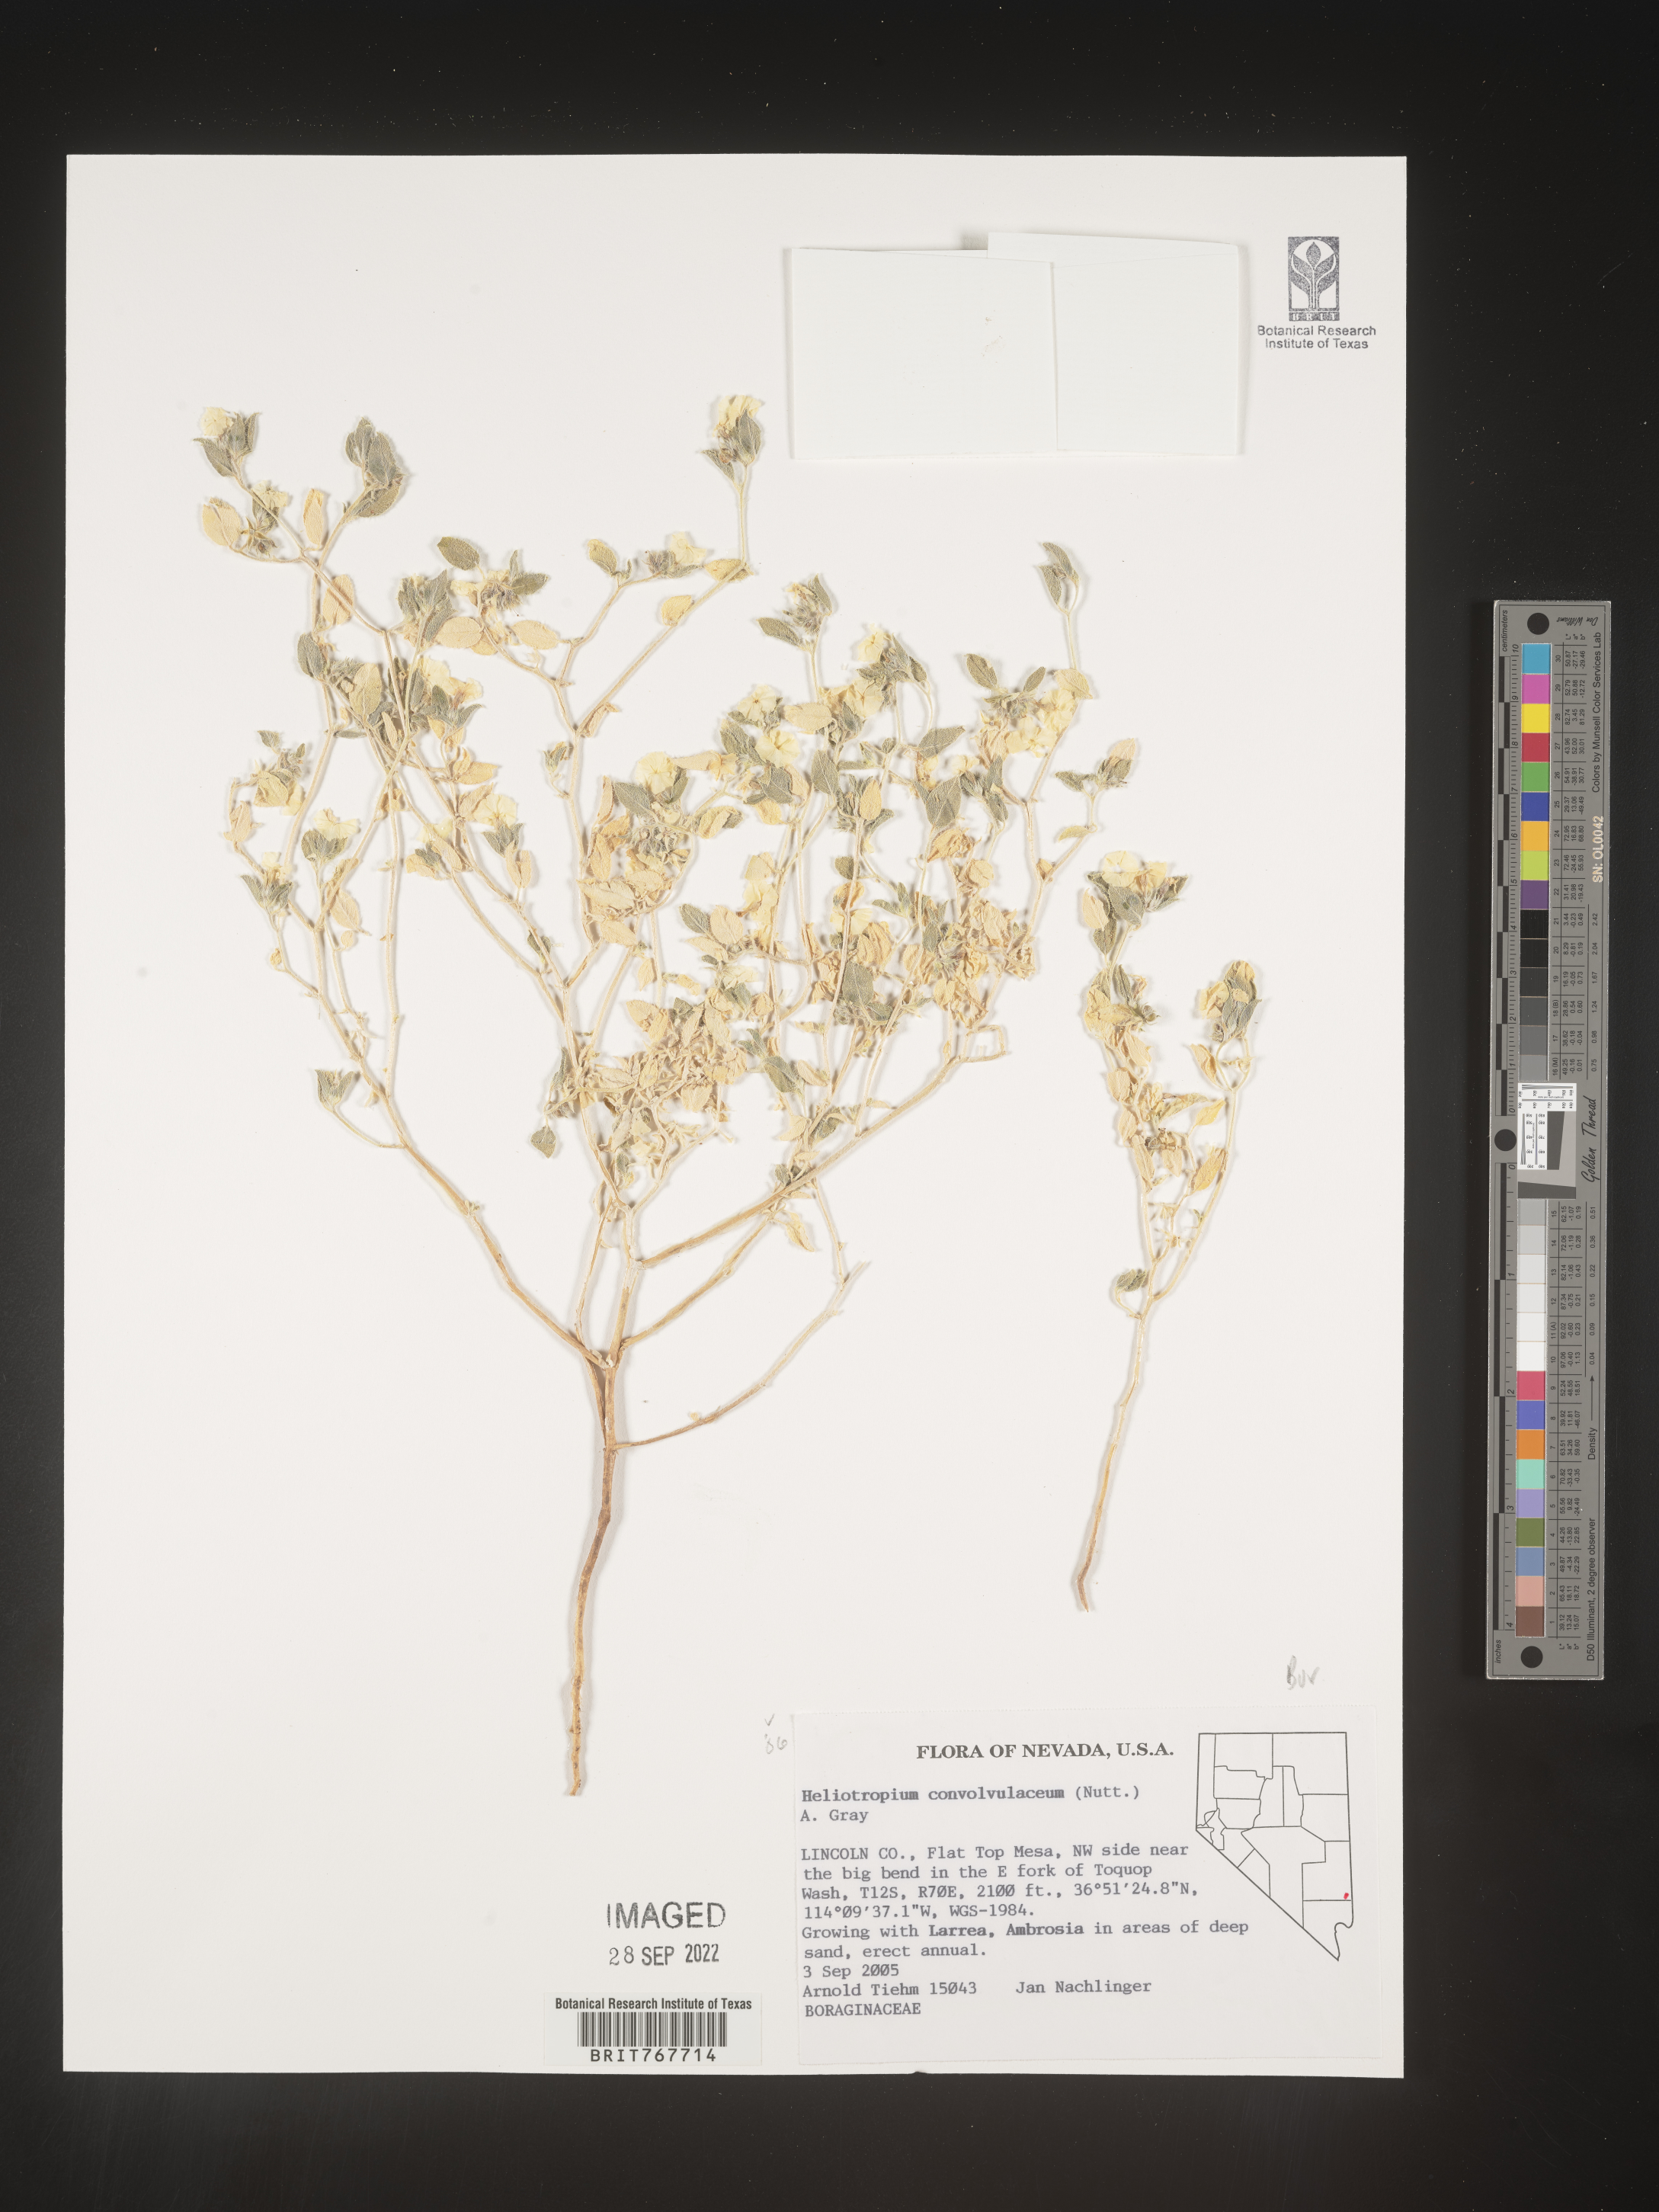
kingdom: Plantae
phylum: Tracheophyta
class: Magnoliopsida
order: Boraginales
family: Heliotropiaceae
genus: Heliotropium
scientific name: Heliotropium
